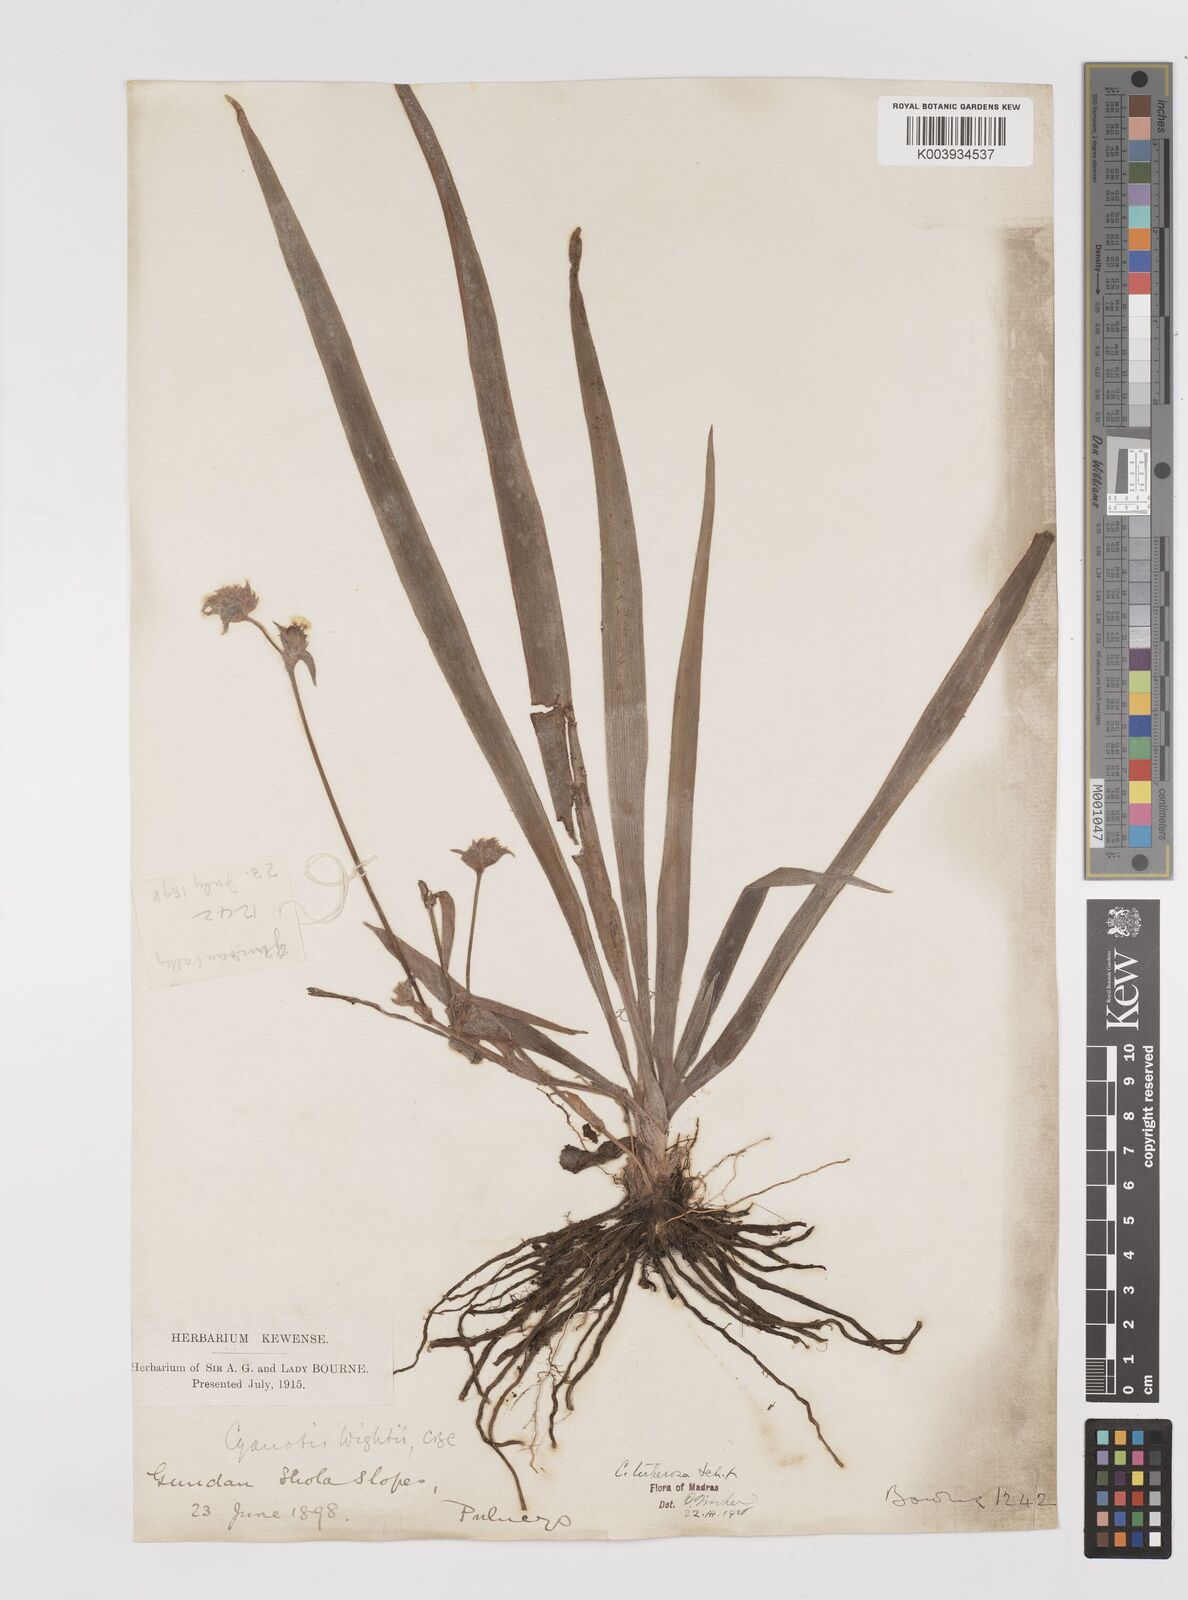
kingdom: Plantae
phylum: Tracheophyta
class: Liliopsida
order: Commelinales
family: Commelinaceae
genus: Cyanotis
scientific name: Cyanotis tuberosa
